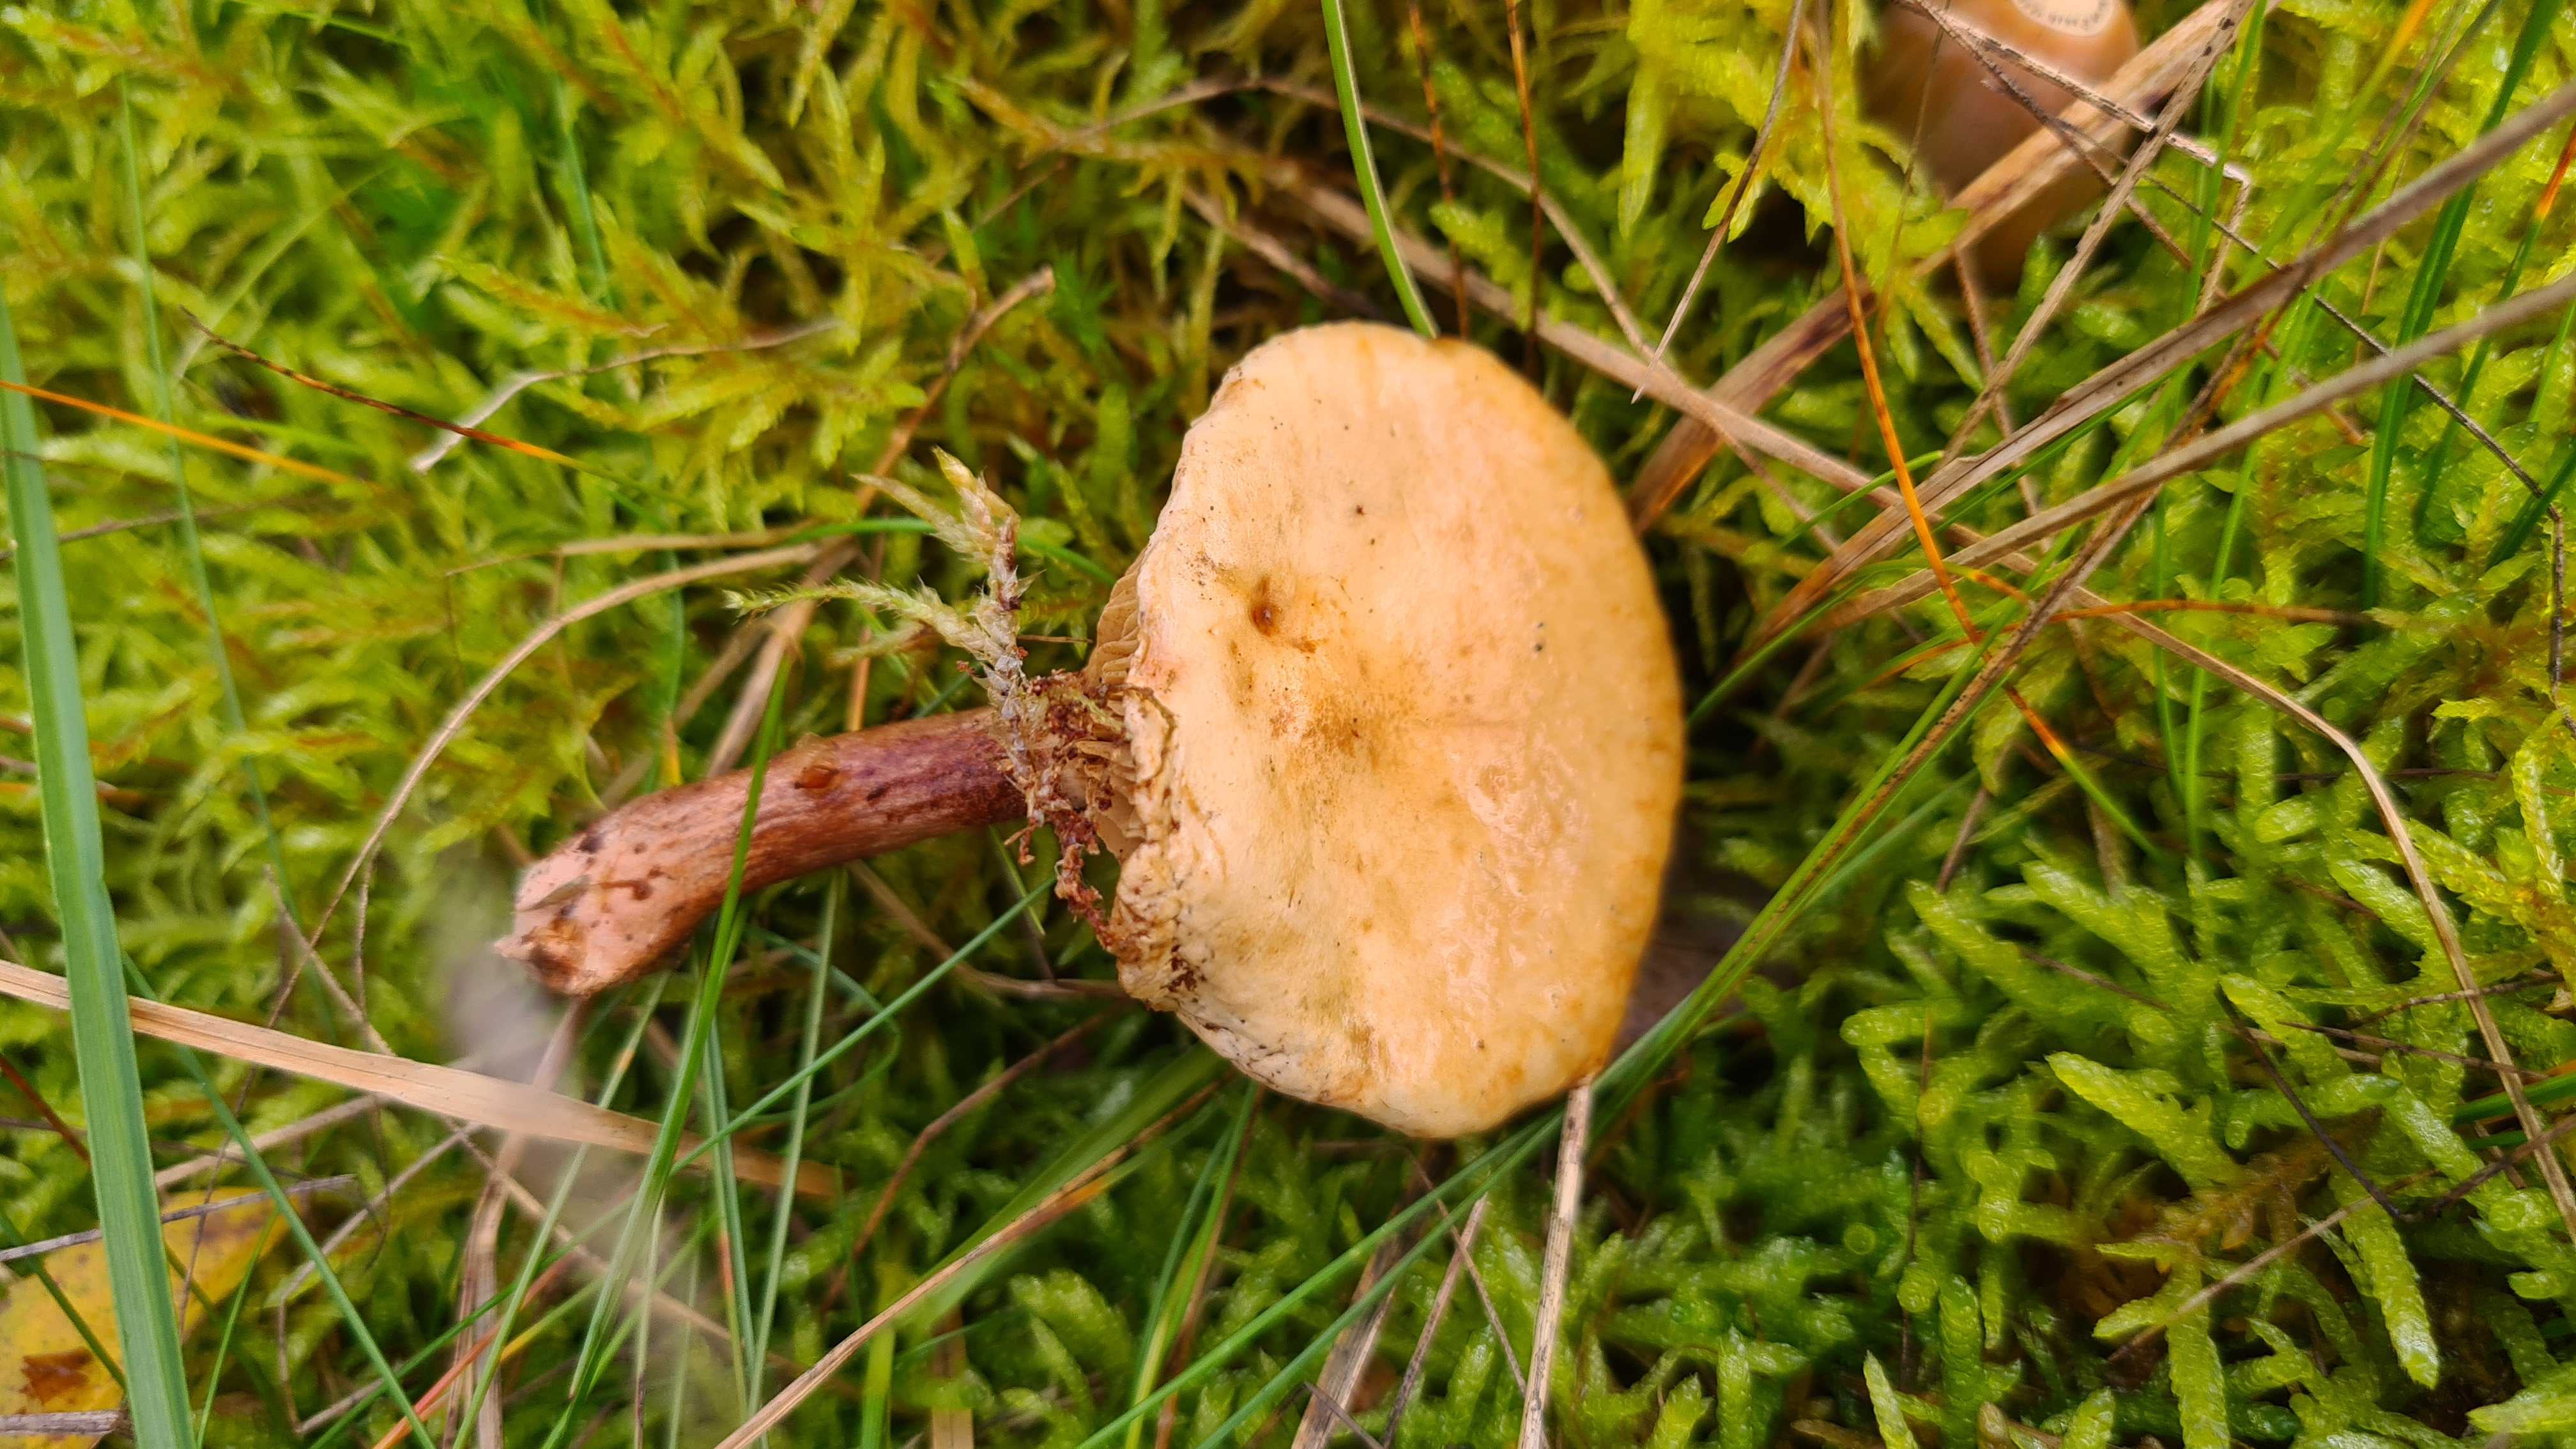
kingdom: Fungi
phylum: Basidiomycota
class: Agaricomycetes
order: Boletales
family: Paxillaceae
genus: Paxillus
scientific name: Paxillus involutus
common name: almindelig netbladhat
